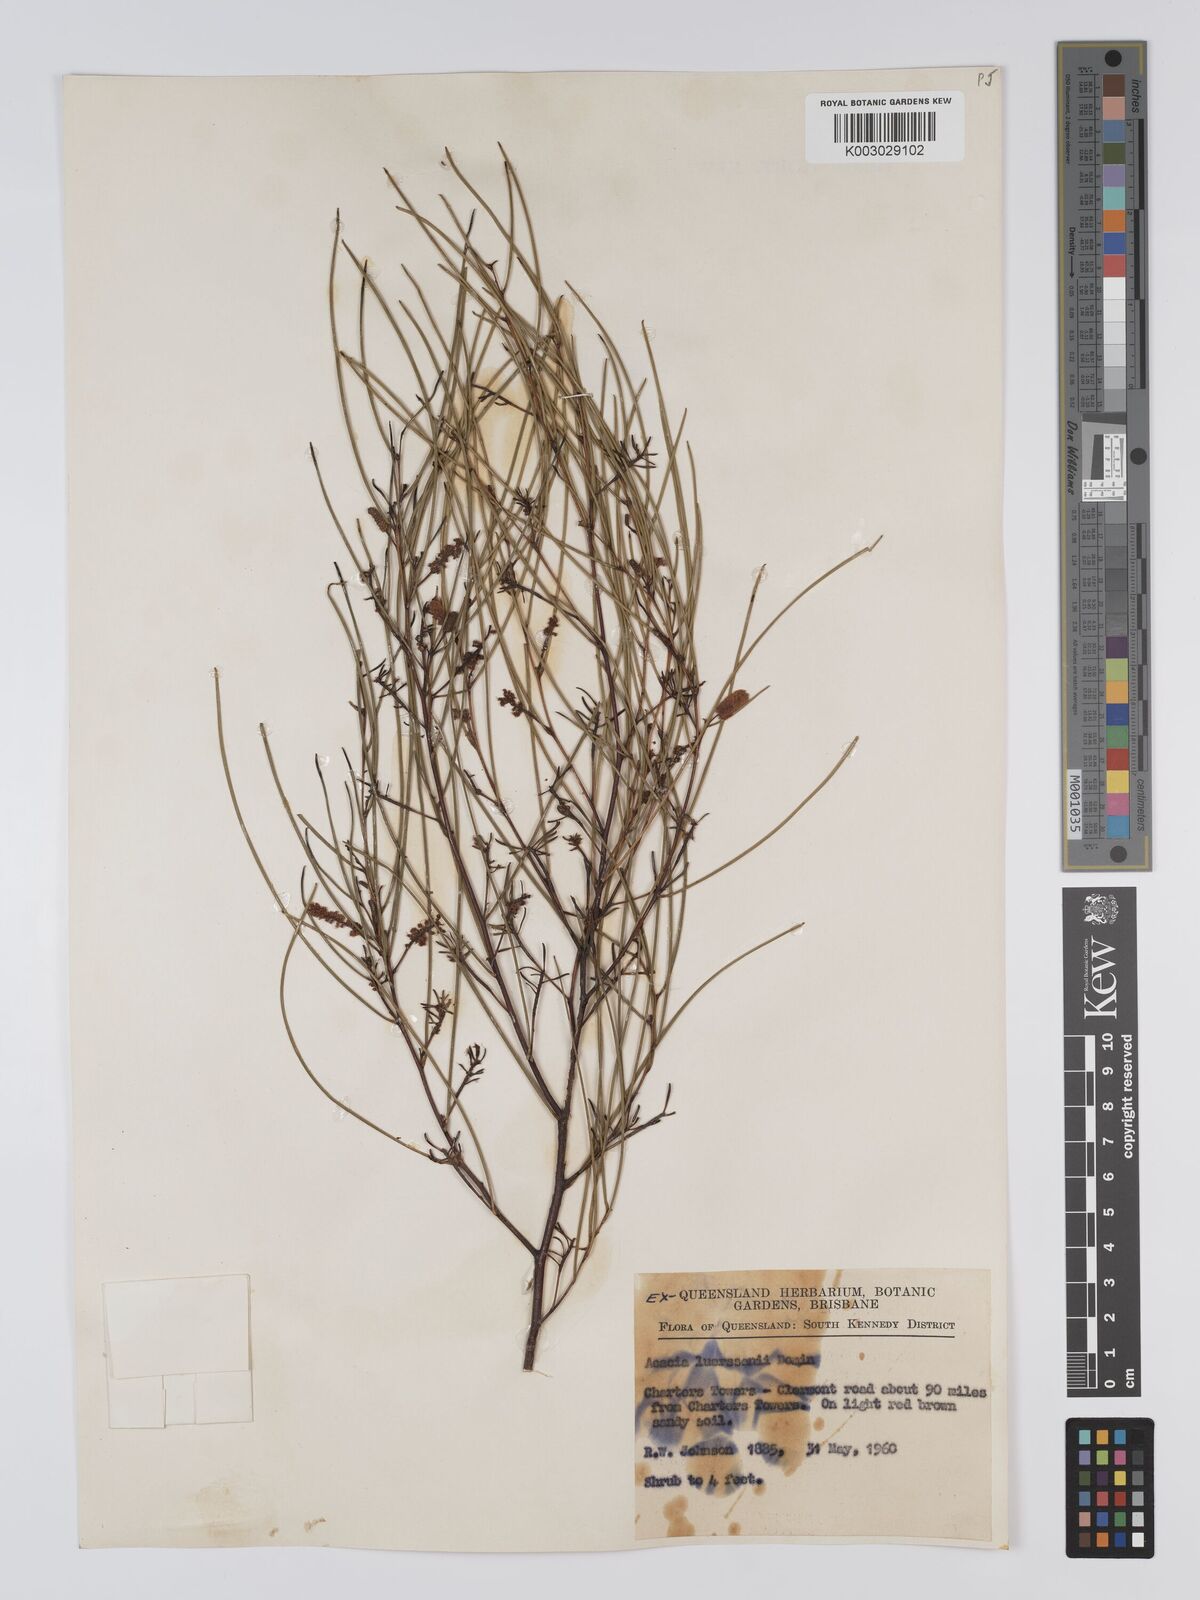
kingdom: Plantae
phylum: Tracheophyta
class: Magnoliopsida
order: Fabales
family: Fabaceae
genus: Acacia
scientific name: Acacia tenuissima
